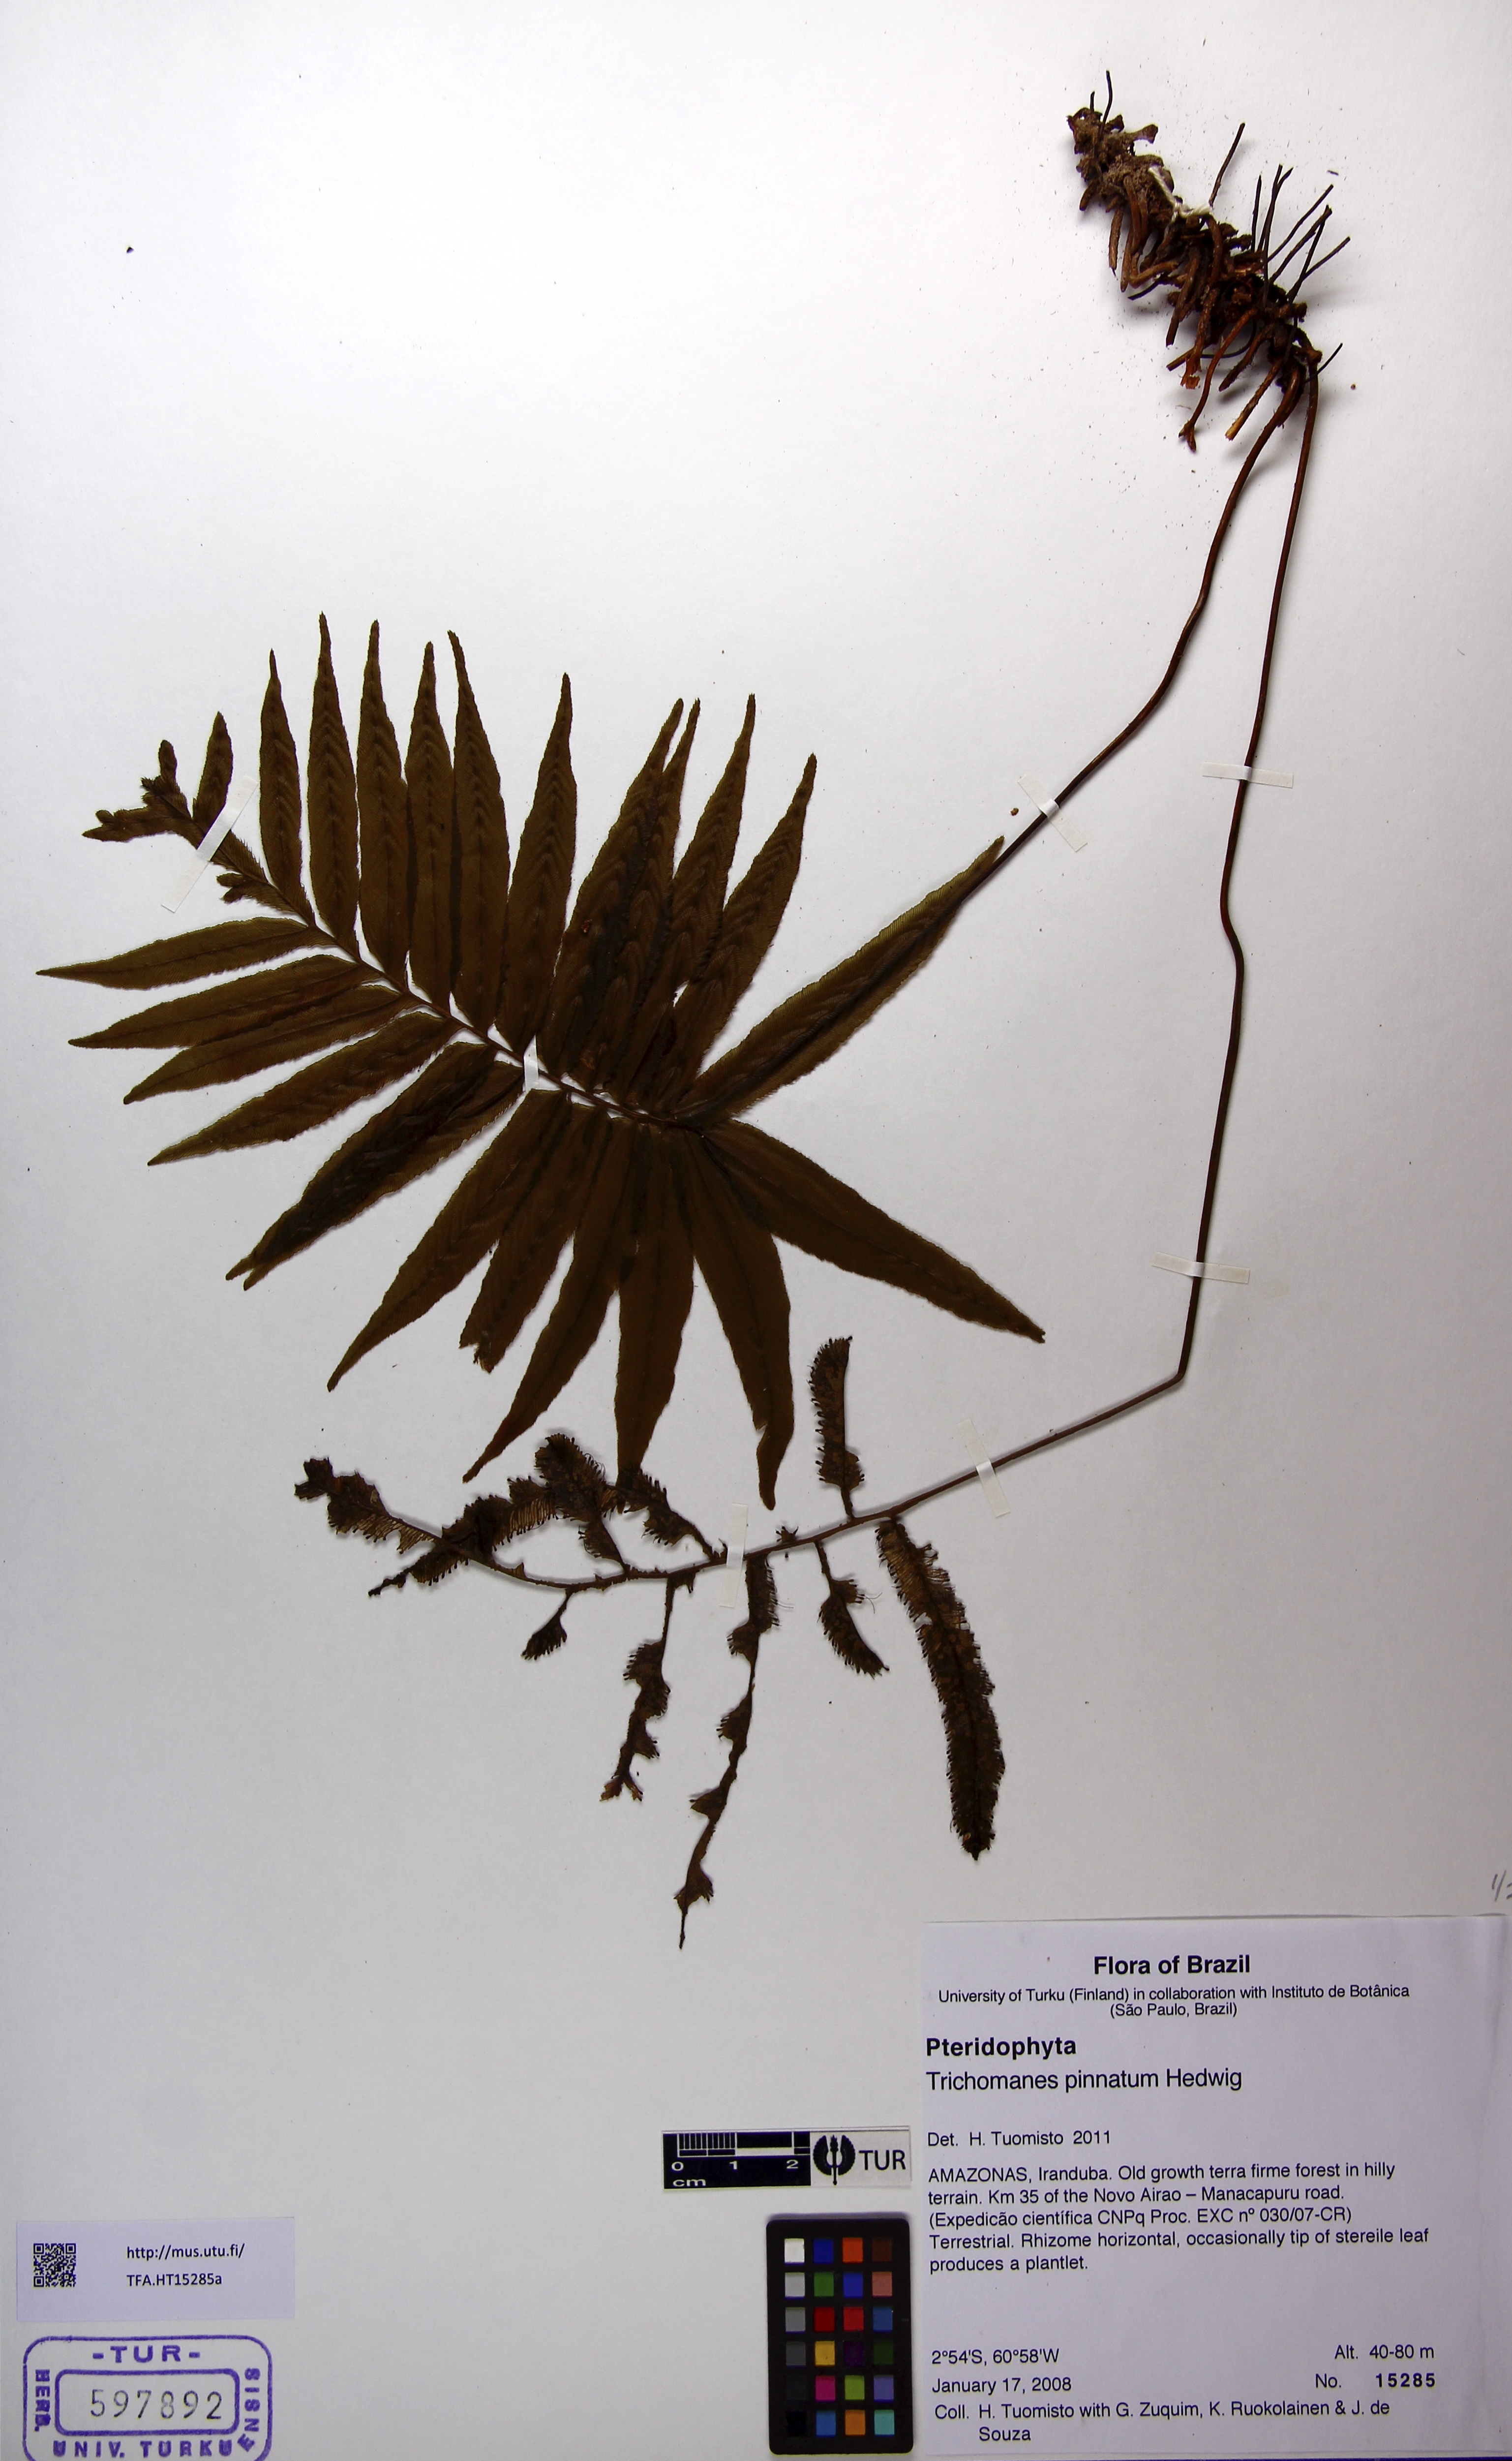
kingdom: Plantae
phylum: Tracheophyta
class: Polypodiopsida
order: Hymenophyllales
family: Hymenophyllaceae
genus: Trichomanes
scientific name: Trichomanes pinnatum
